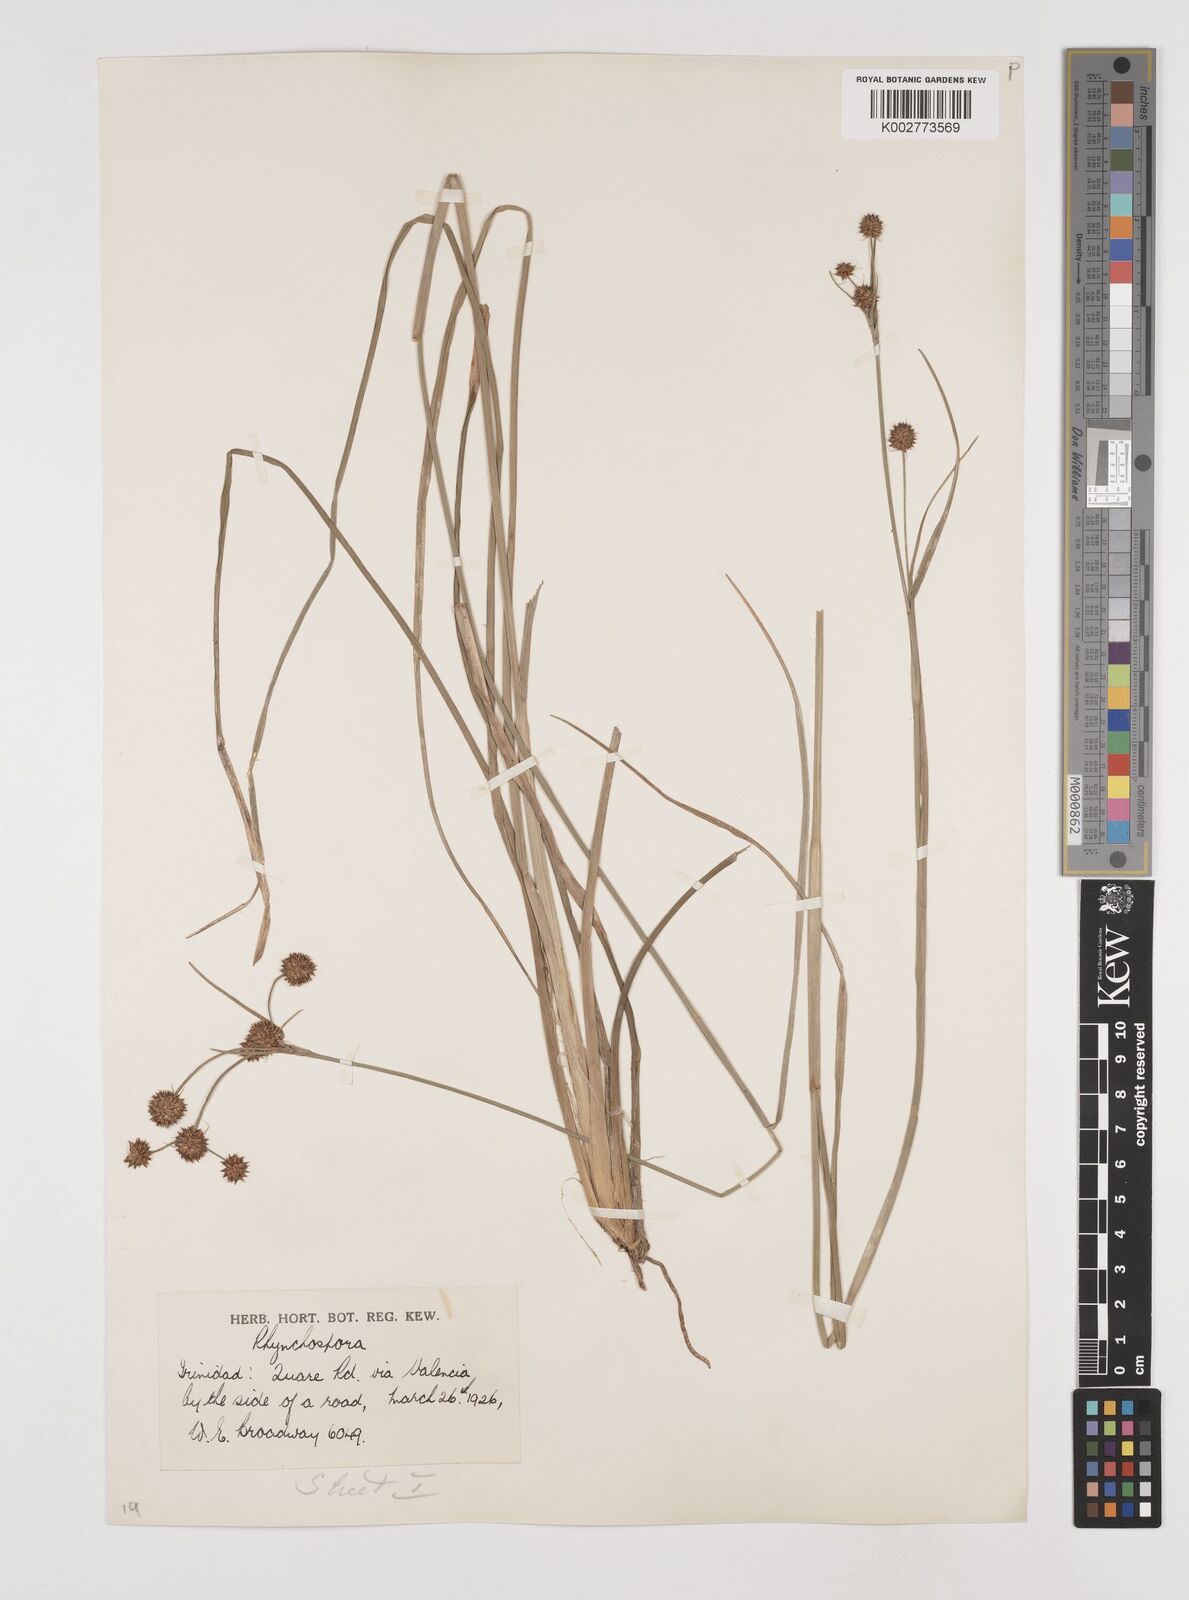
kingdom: Plantae
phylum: Tracheophyta
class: Liliopsida
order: Poales
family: Cyperaceae
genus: Rhynchospora
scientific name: Rhynchospora holoschoenoides
